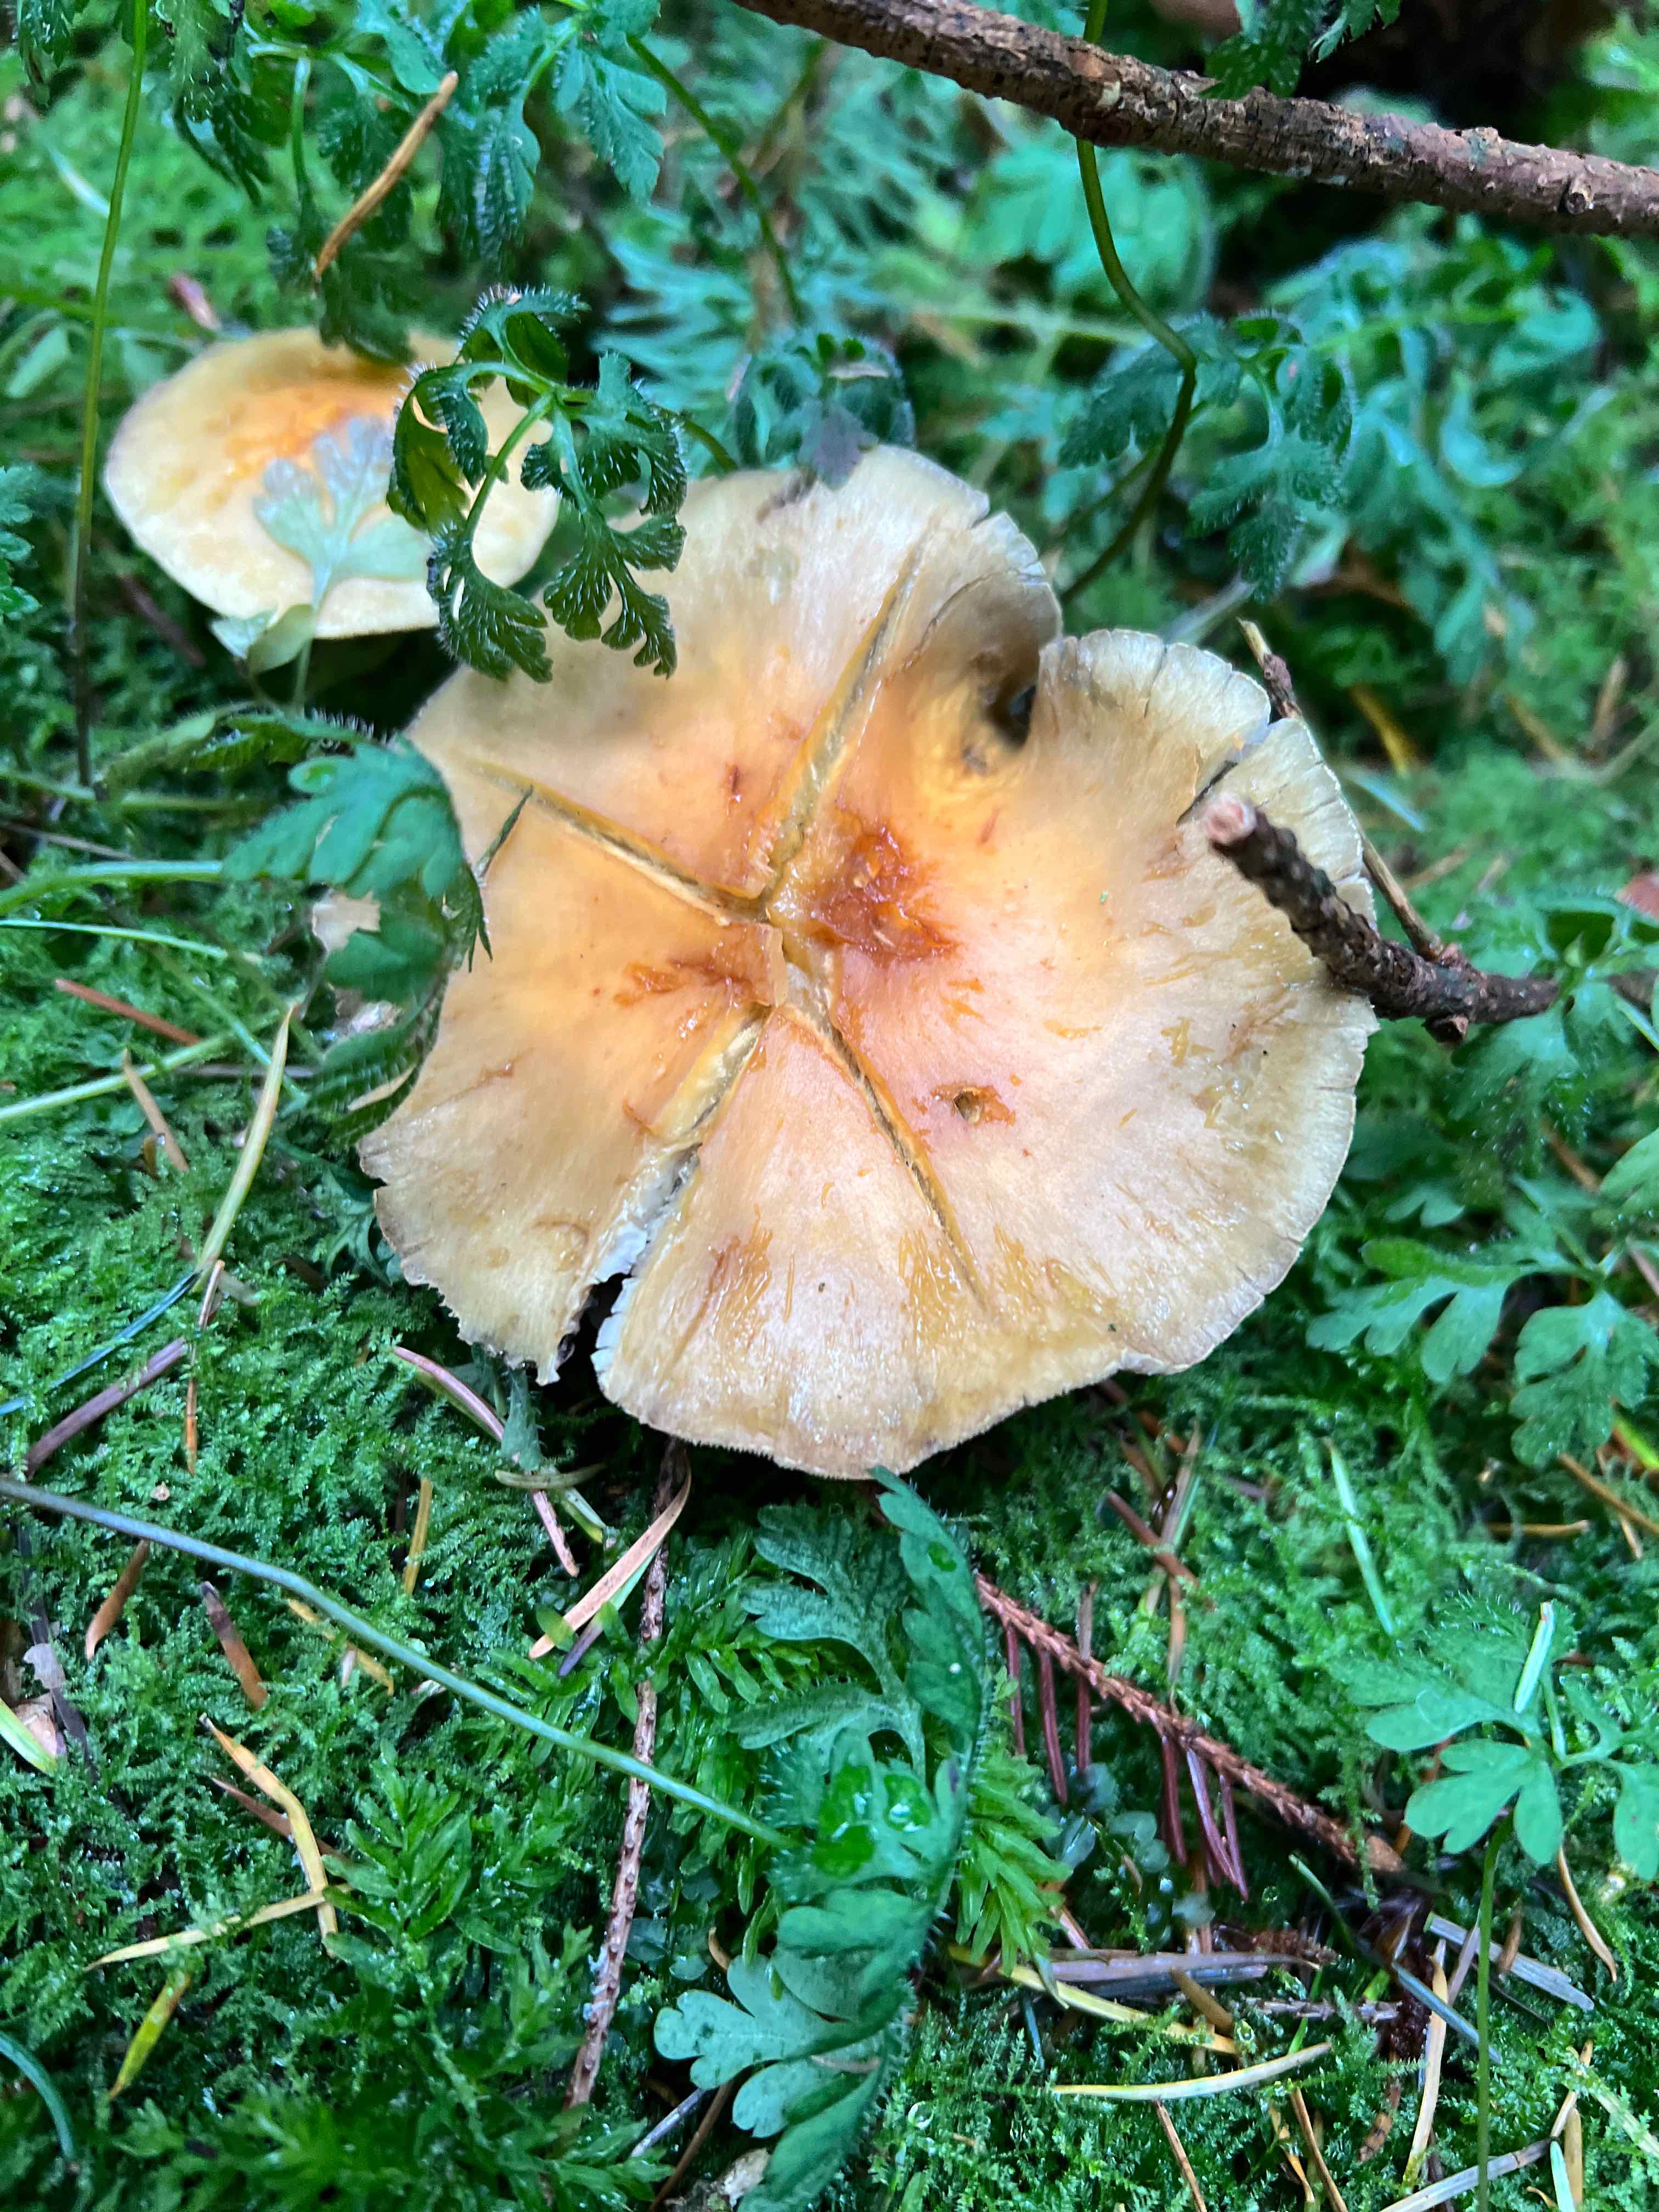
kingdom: Fungi
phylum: Basidiomycota
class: Agaricomycetes
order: Agaricales
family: Strophariaceae
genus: Hypholoma
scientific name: Hypholoma fasciculare
